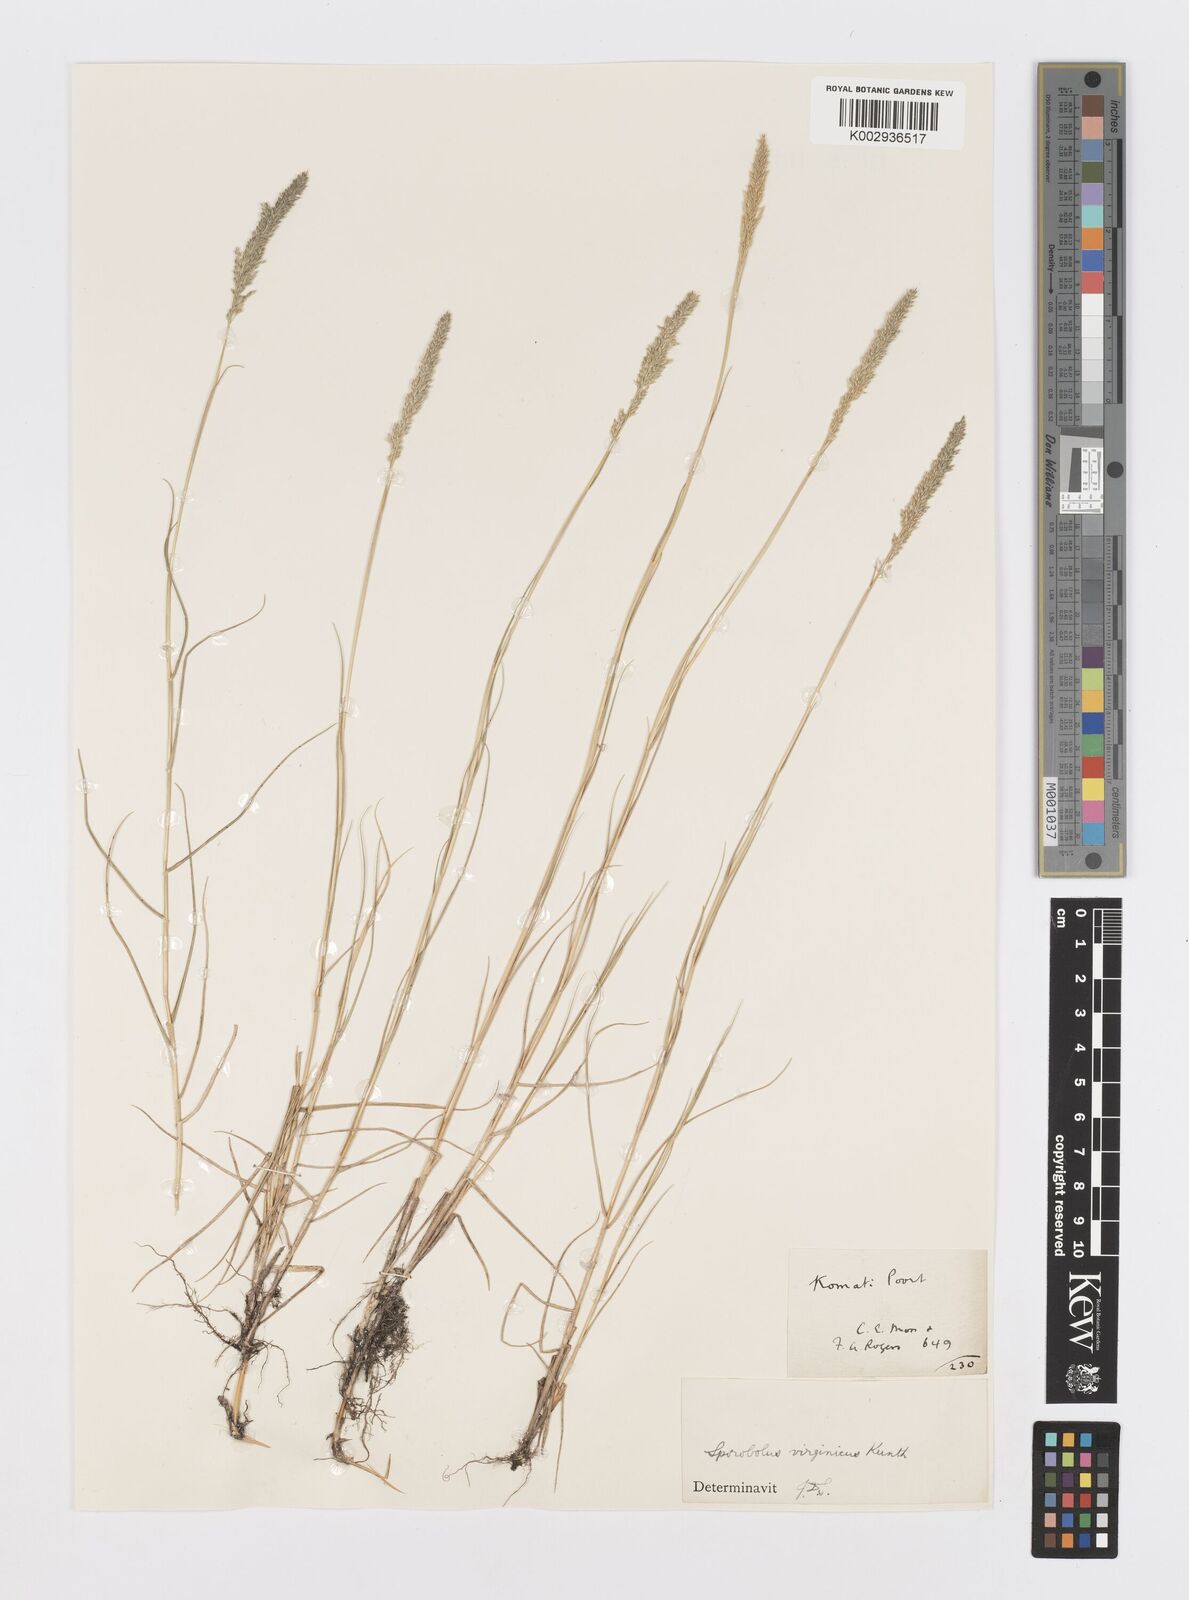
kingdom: Plantae
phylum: Tracheophyta
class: Liliopsida
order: Poales
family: Poaceae
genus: Sporobolus
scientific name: Sporobolus virginicus
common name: Beach dropseed
